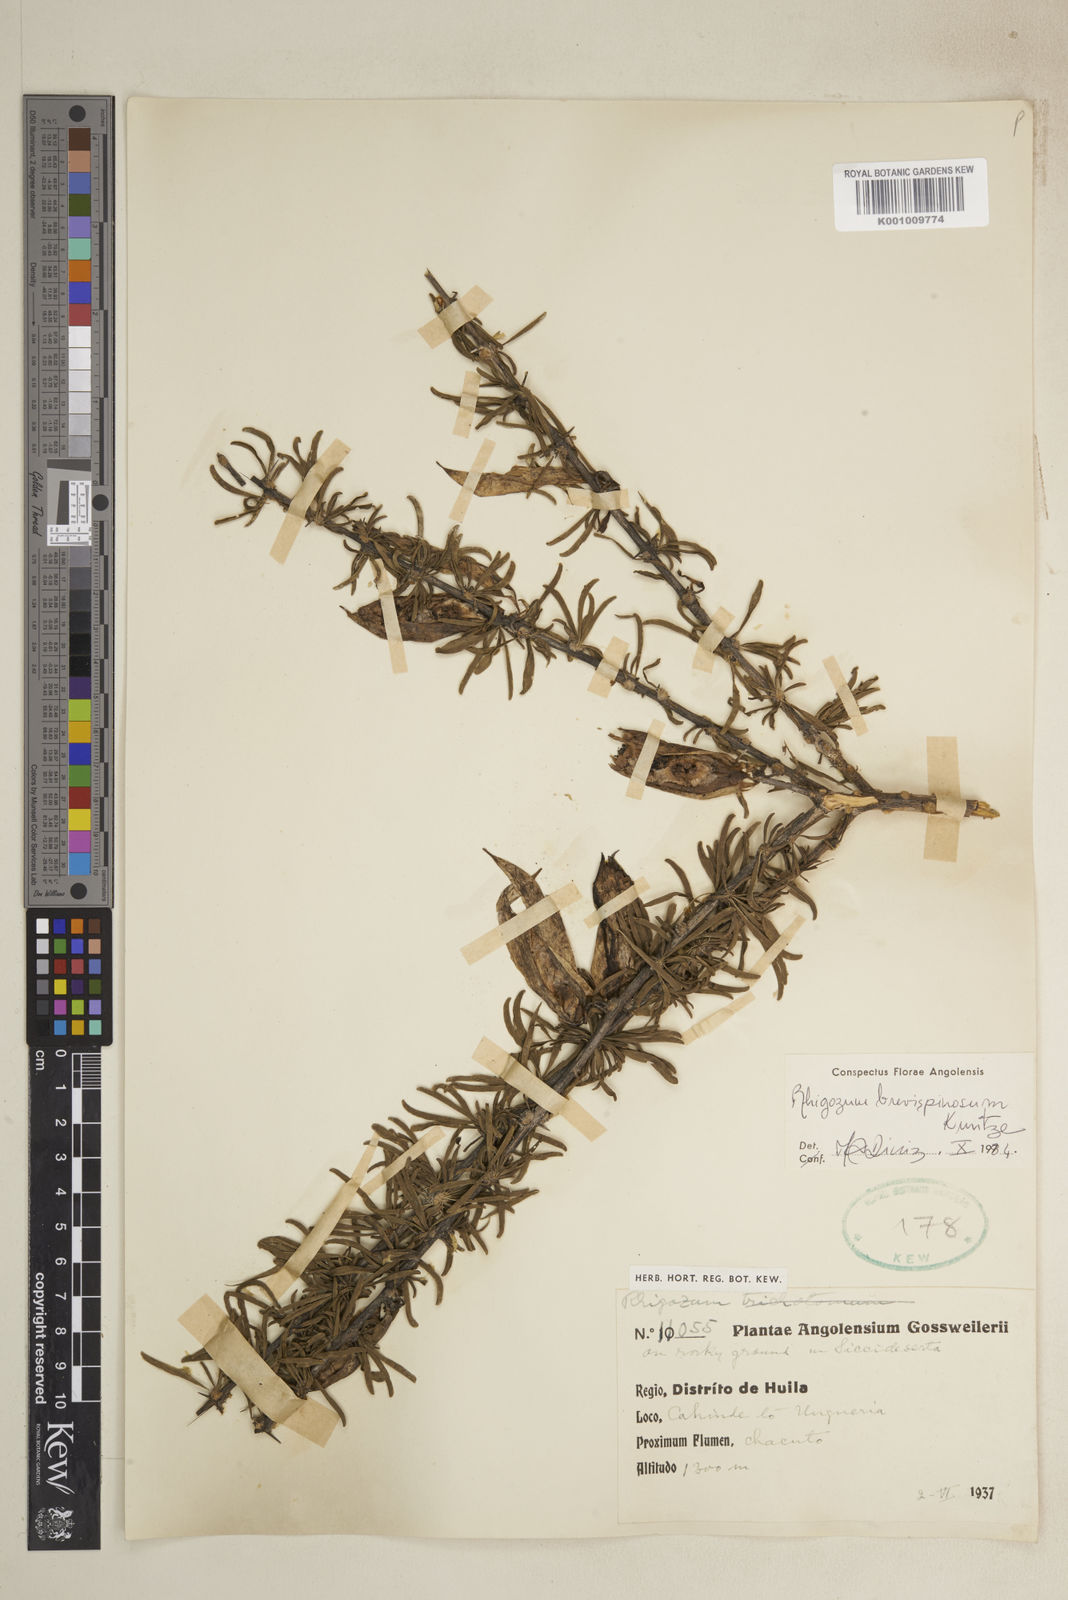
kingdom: Plantae
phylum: Tracheophyta
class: Magnoliopsida
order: Lamiales
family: Bignoniaceae
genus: Rhigozum
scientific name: Rhigozum brevispinosum
